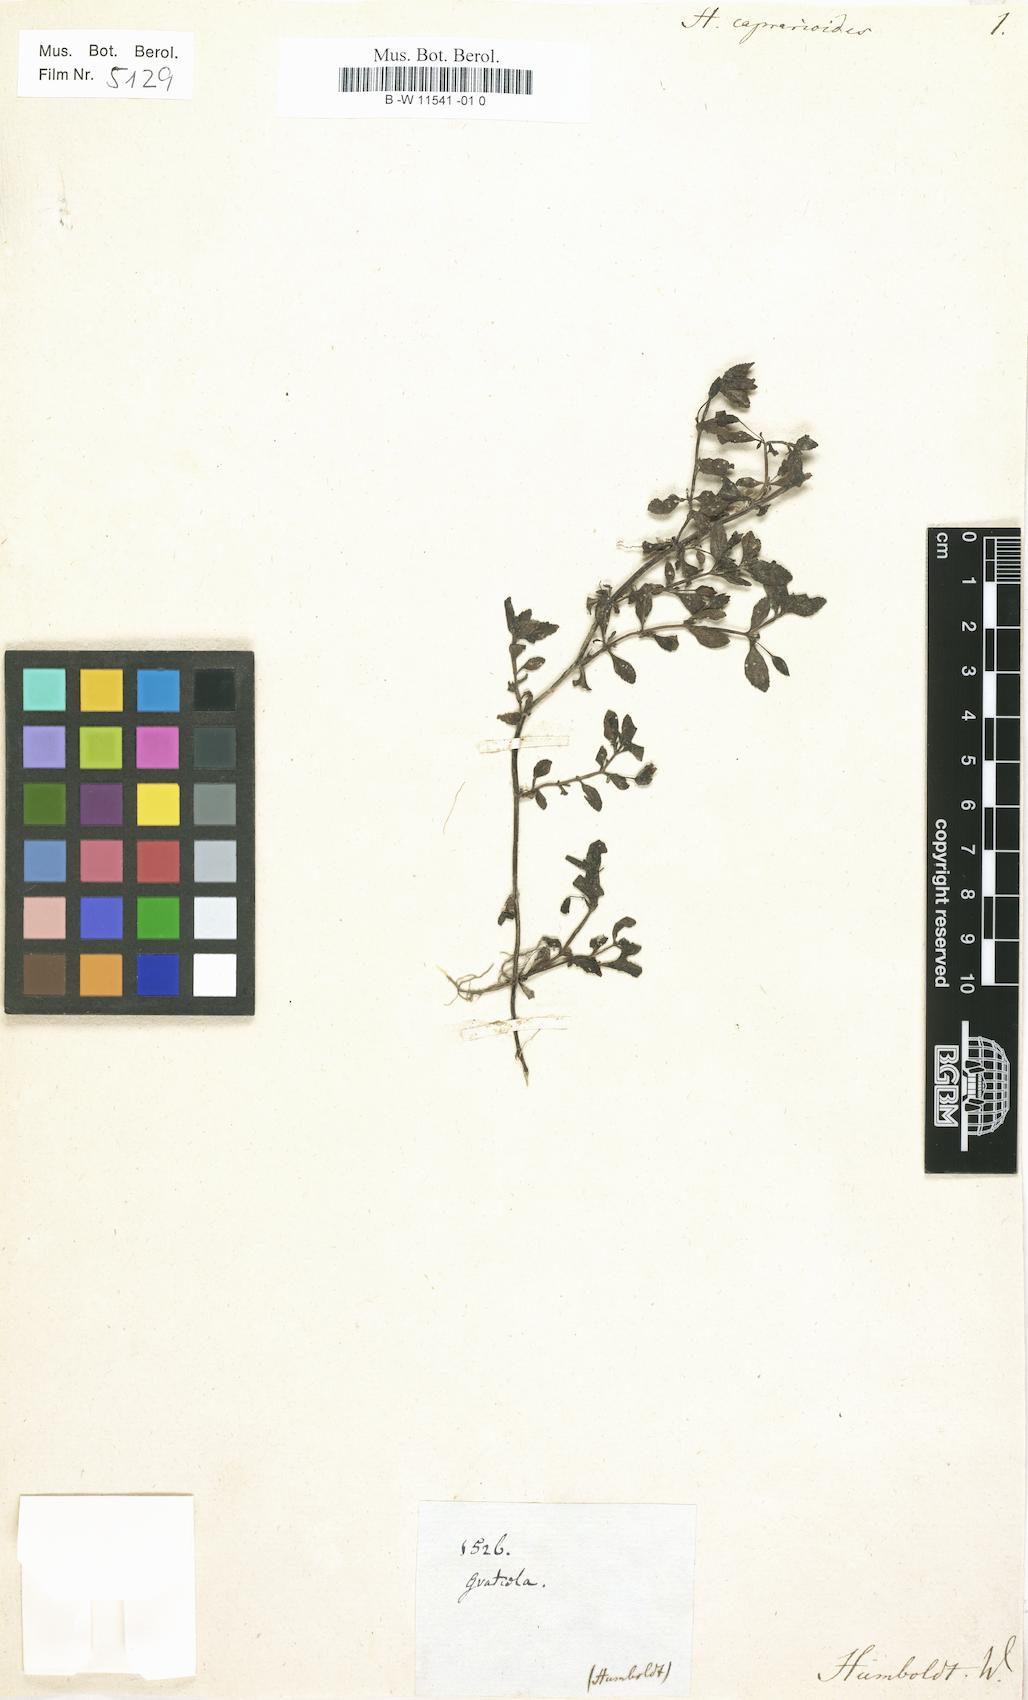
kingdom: Plantae
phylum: Tracheophyta
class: Magnoliopsida
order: Lamiales
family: Plantaginaceae
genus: Mecardonia
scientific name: Mecardonia procumbens
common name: Baby jump-up
